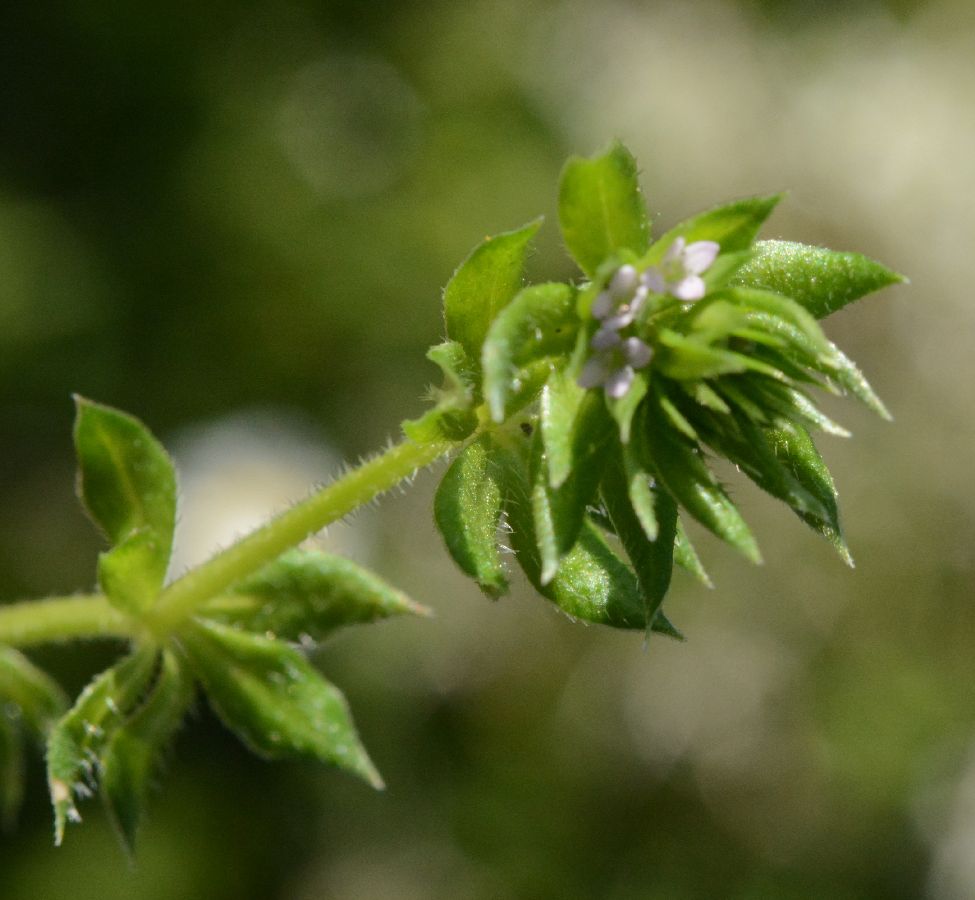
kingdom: Plantae
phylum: Tracheophyta
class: Magnoliopsida
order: Gentianales
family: Rubiaceae
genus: Asperula
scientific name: Asperula arvensis
